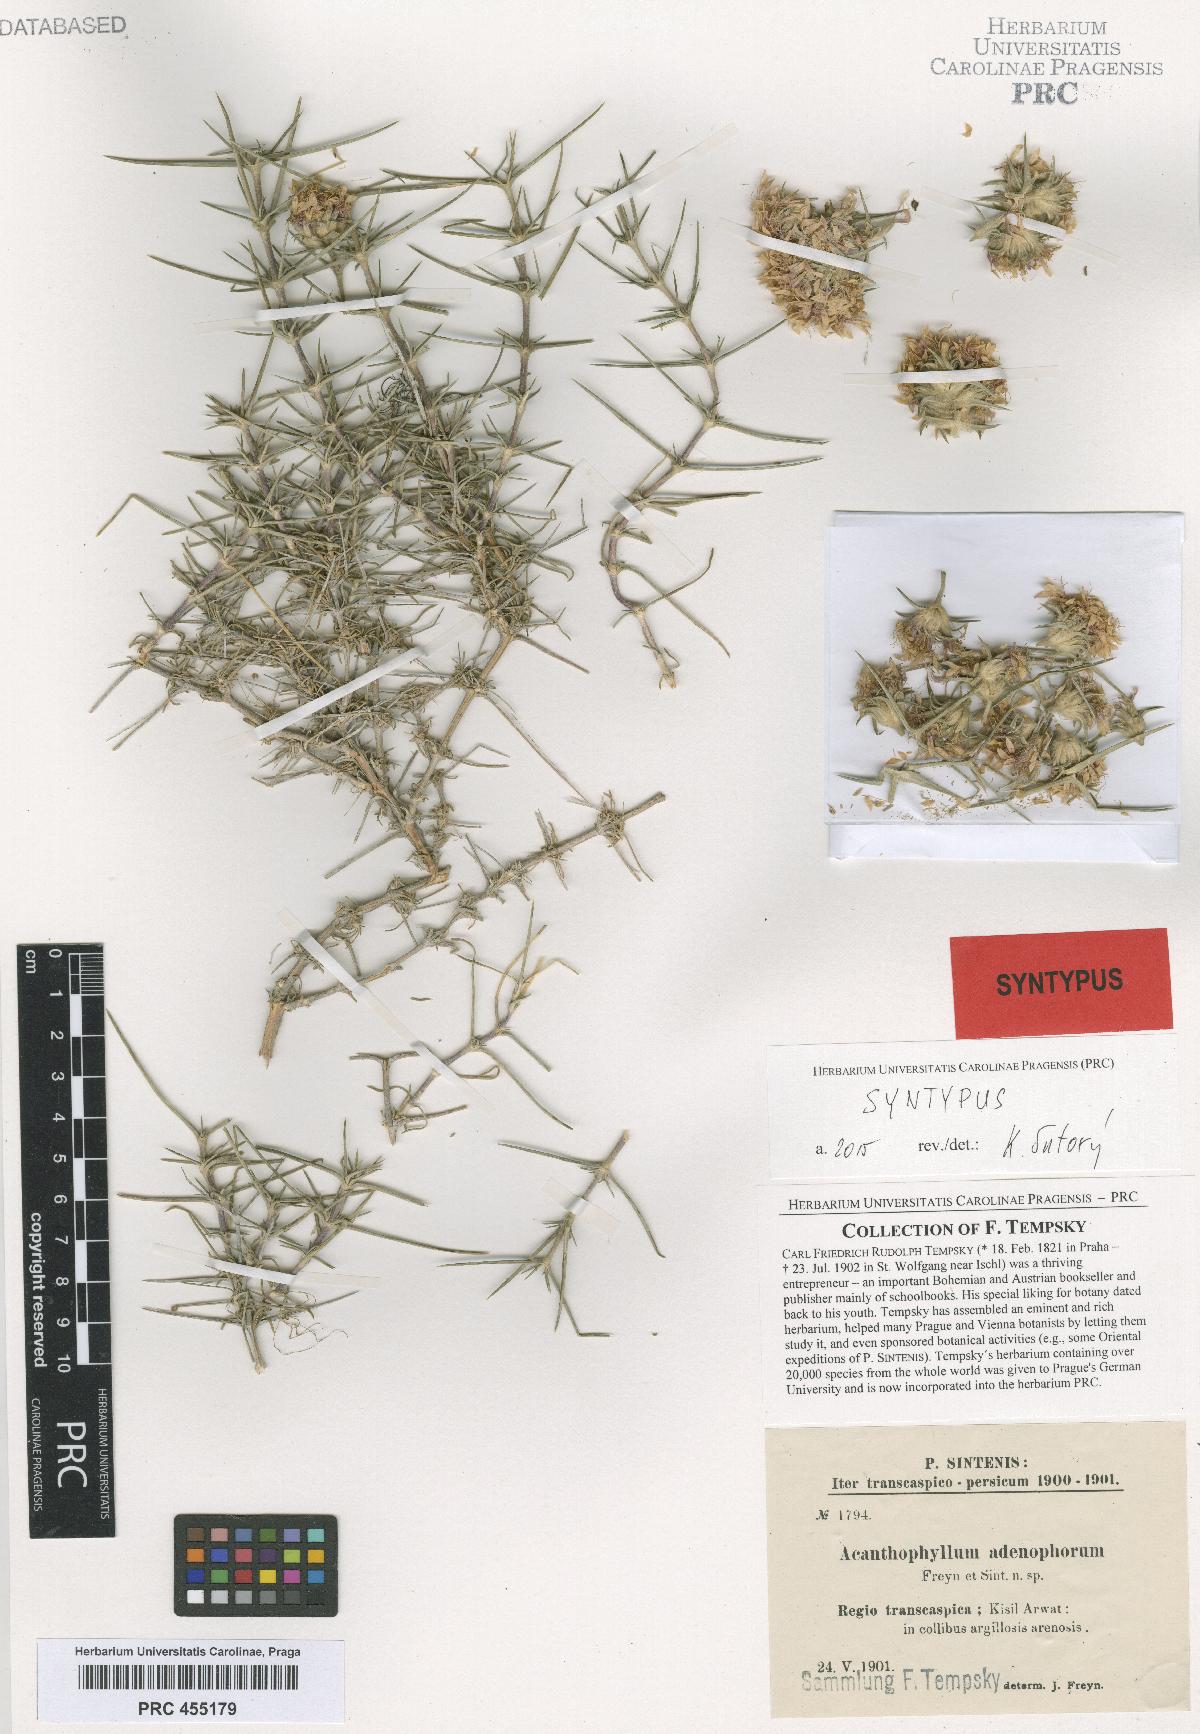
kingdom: Plantae
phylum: Tracheophyta
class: Magnoliopsida
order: Caryophyllales
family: Caryophyllaceae
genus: Acanthophyllum
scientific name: Acanthophyllum adenophorum
